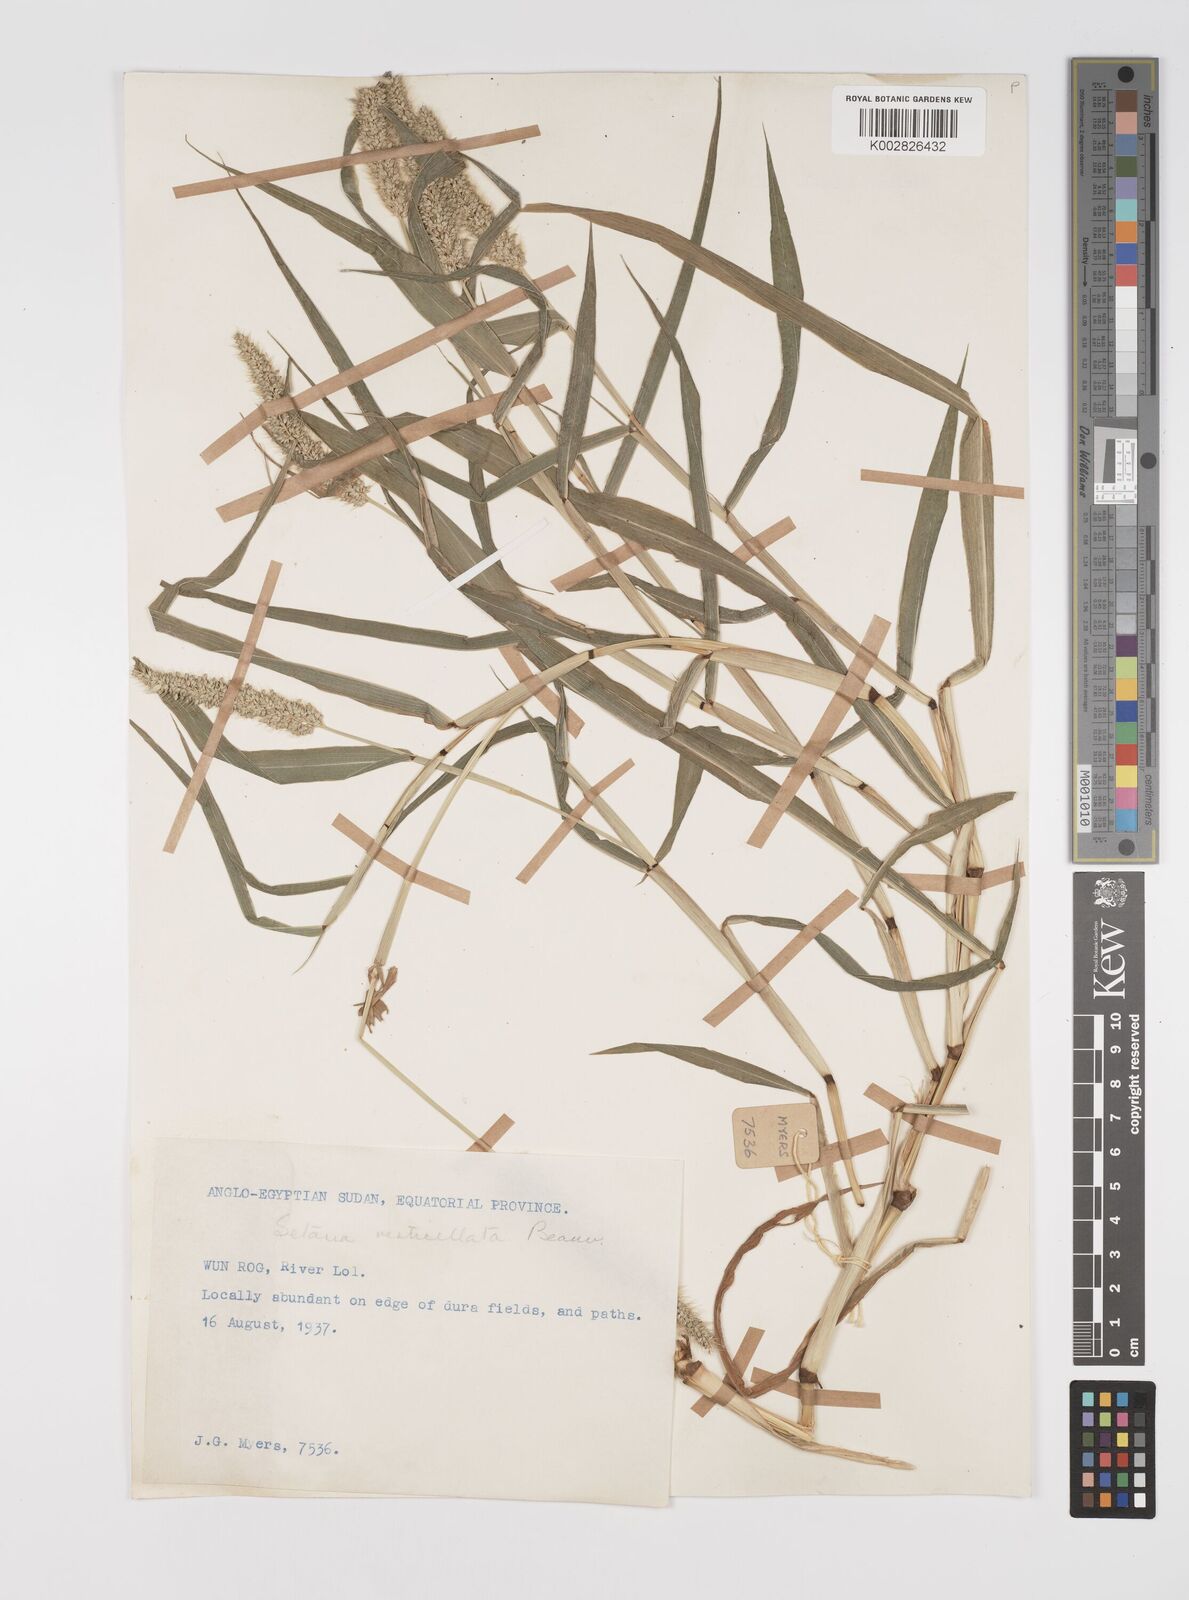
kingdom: Plantae
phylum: Tracheophyta
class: Liliopsida
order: Poales
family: Poaceae
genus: Setaria
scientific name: Setaria verticillata
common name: Hooked bristlegrass
